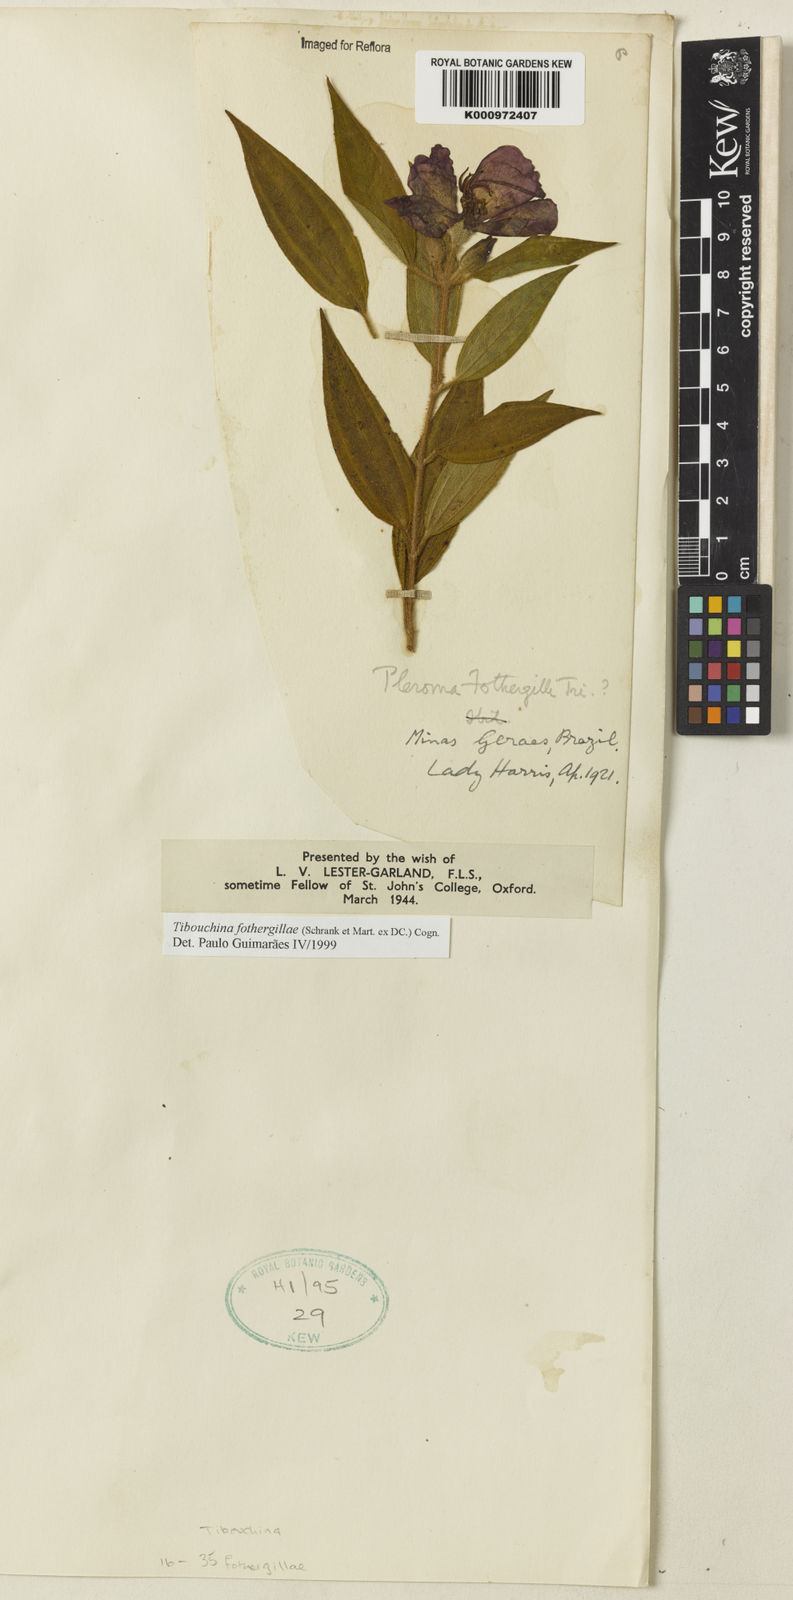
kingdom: Plantae
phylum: Tracheophyta
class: Magnoliopsida
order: Myrtales
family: Melastomataceae
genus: Pleroma
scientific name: Pleroma fothergillae
